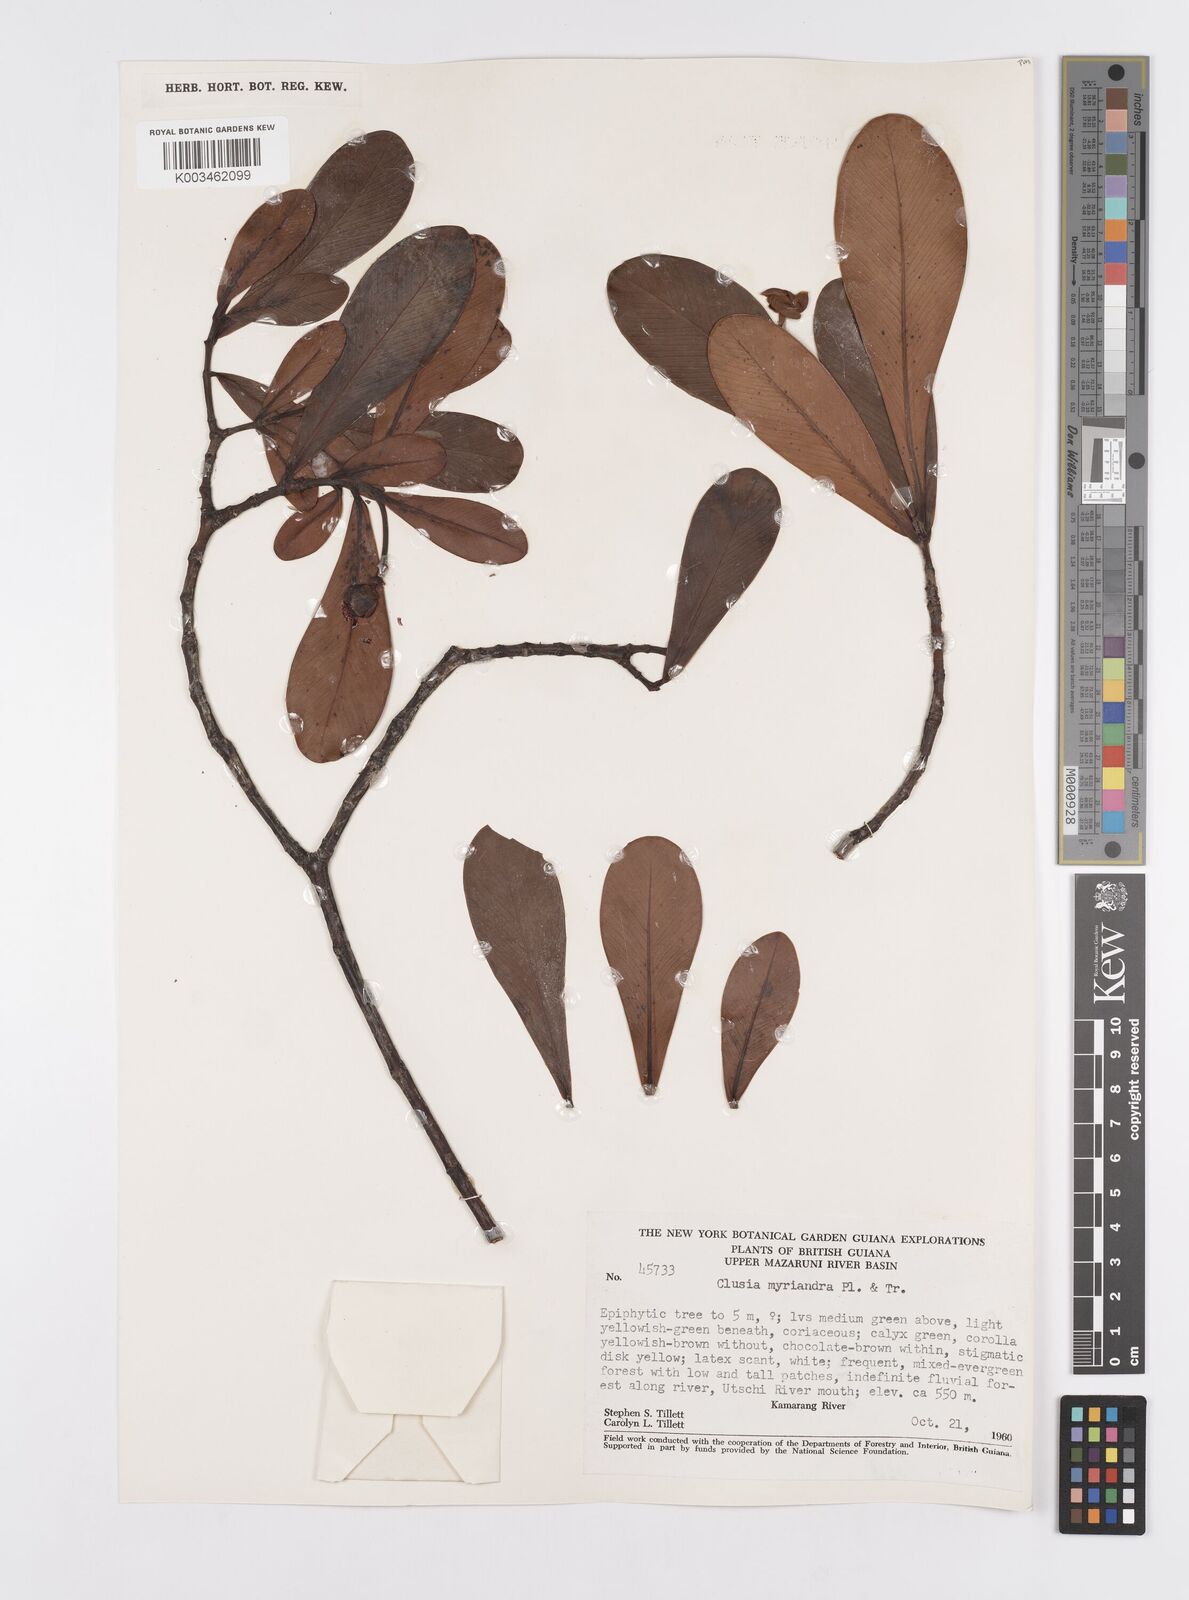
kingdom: Plantae
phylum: Tracheophyta
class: Magnoliopsida
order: Malpighiales
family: Clusiaceae
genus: Clusia
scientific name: Clusia myriandra
